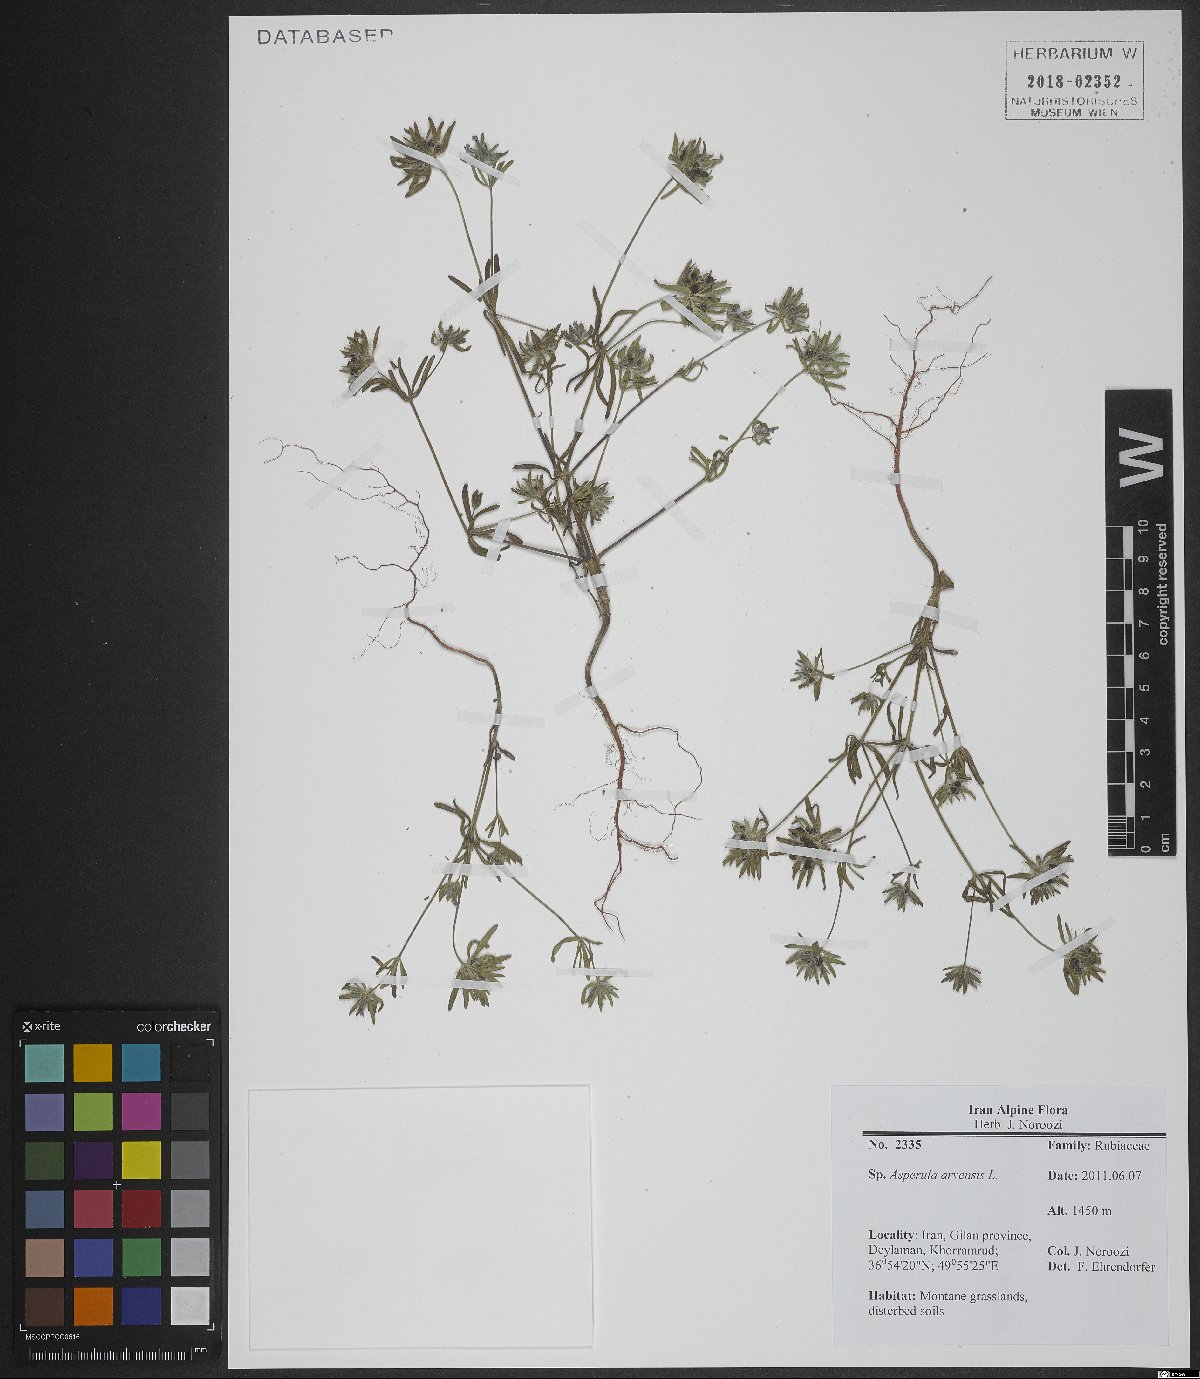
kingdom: Plantae
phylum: Tracheophyta
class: Magnoliopsida
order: Gentianales
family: Rubiaceae
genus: Asperula
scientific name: Asperula arvensis
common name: Blue woodruff
